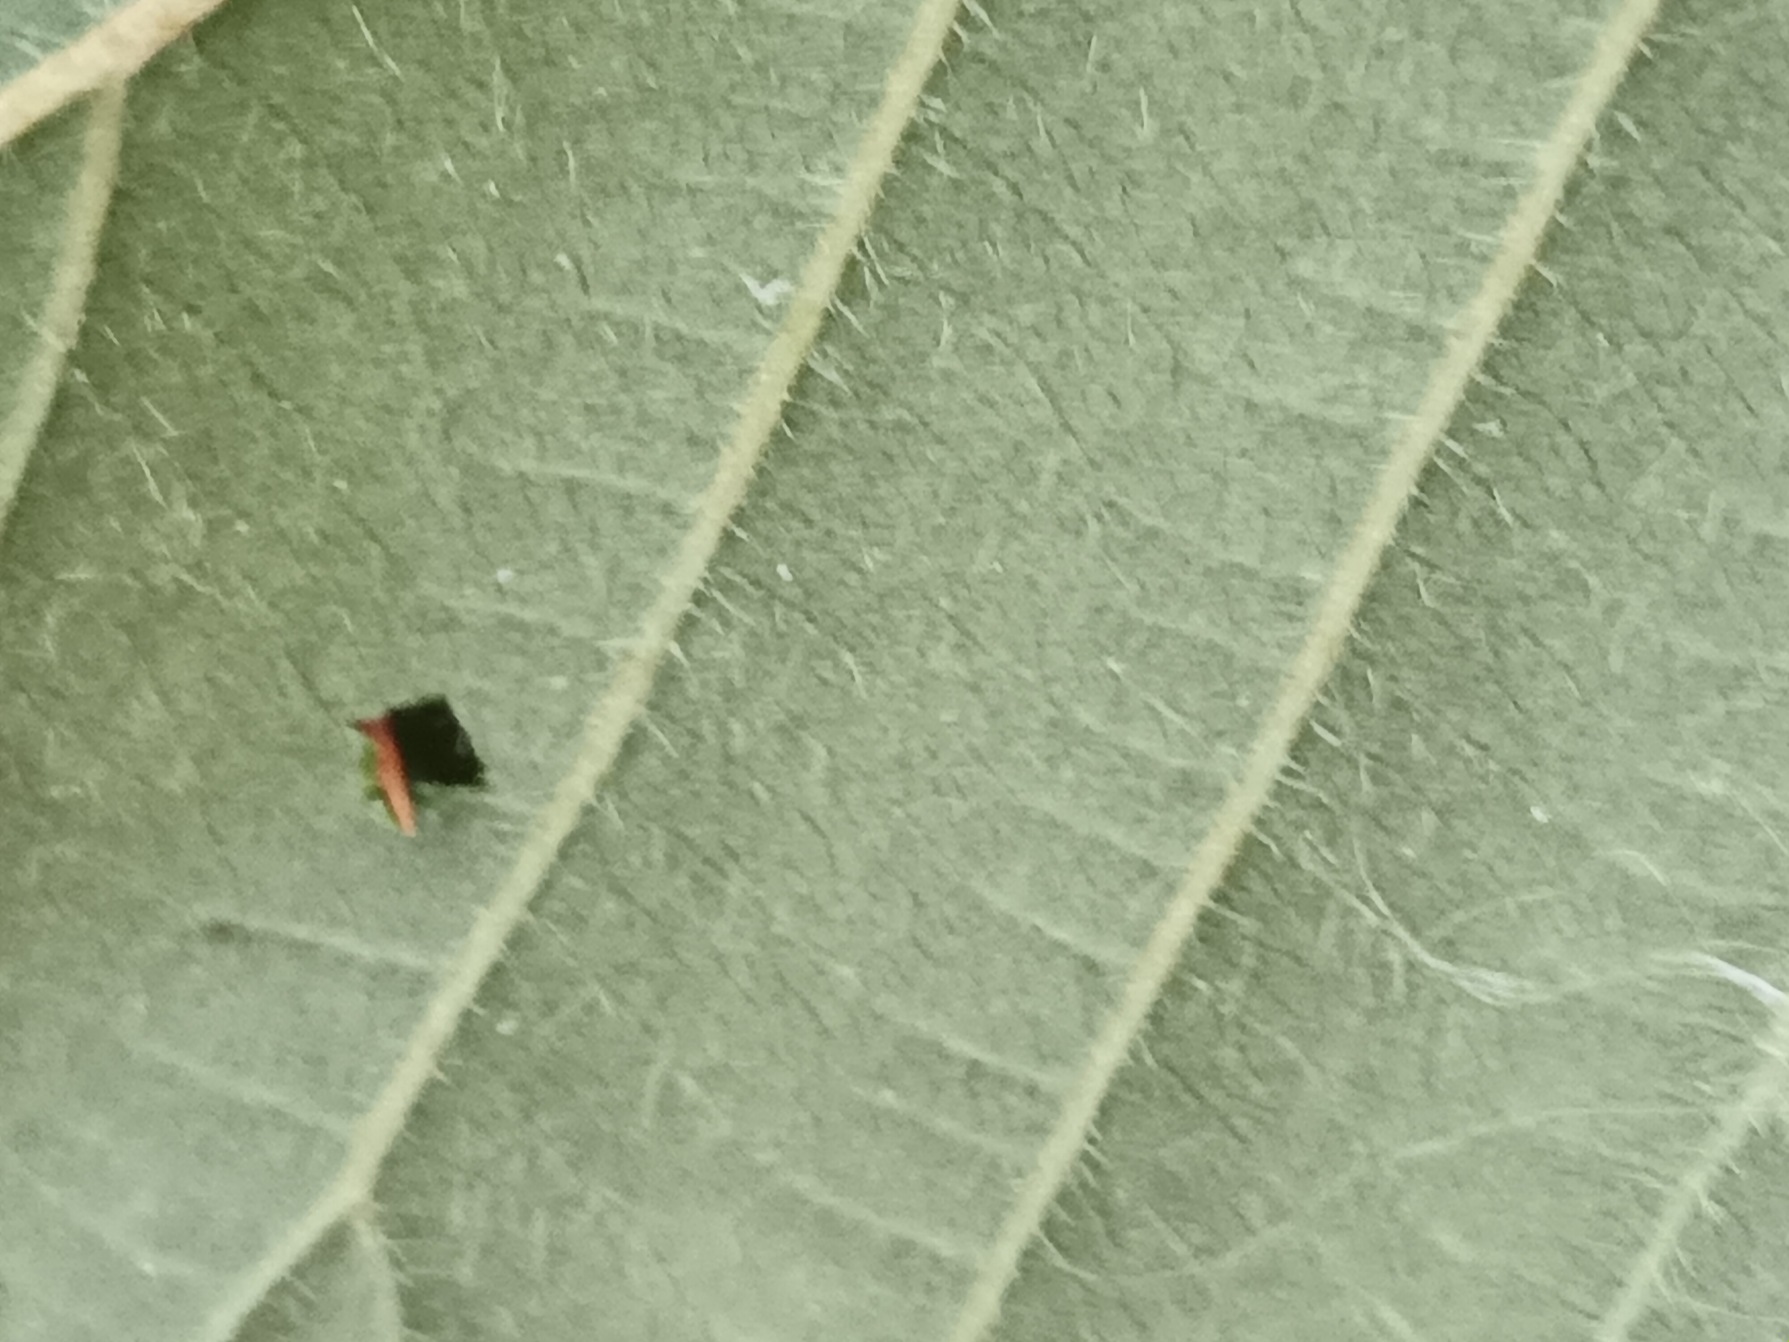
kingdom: Plantae
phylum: Tracheophyta
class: Magnoliopsida
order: Rosales
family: Rosaceae
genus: Rubus
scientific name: Rubus leptothyrsos
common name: Dansk brombær
